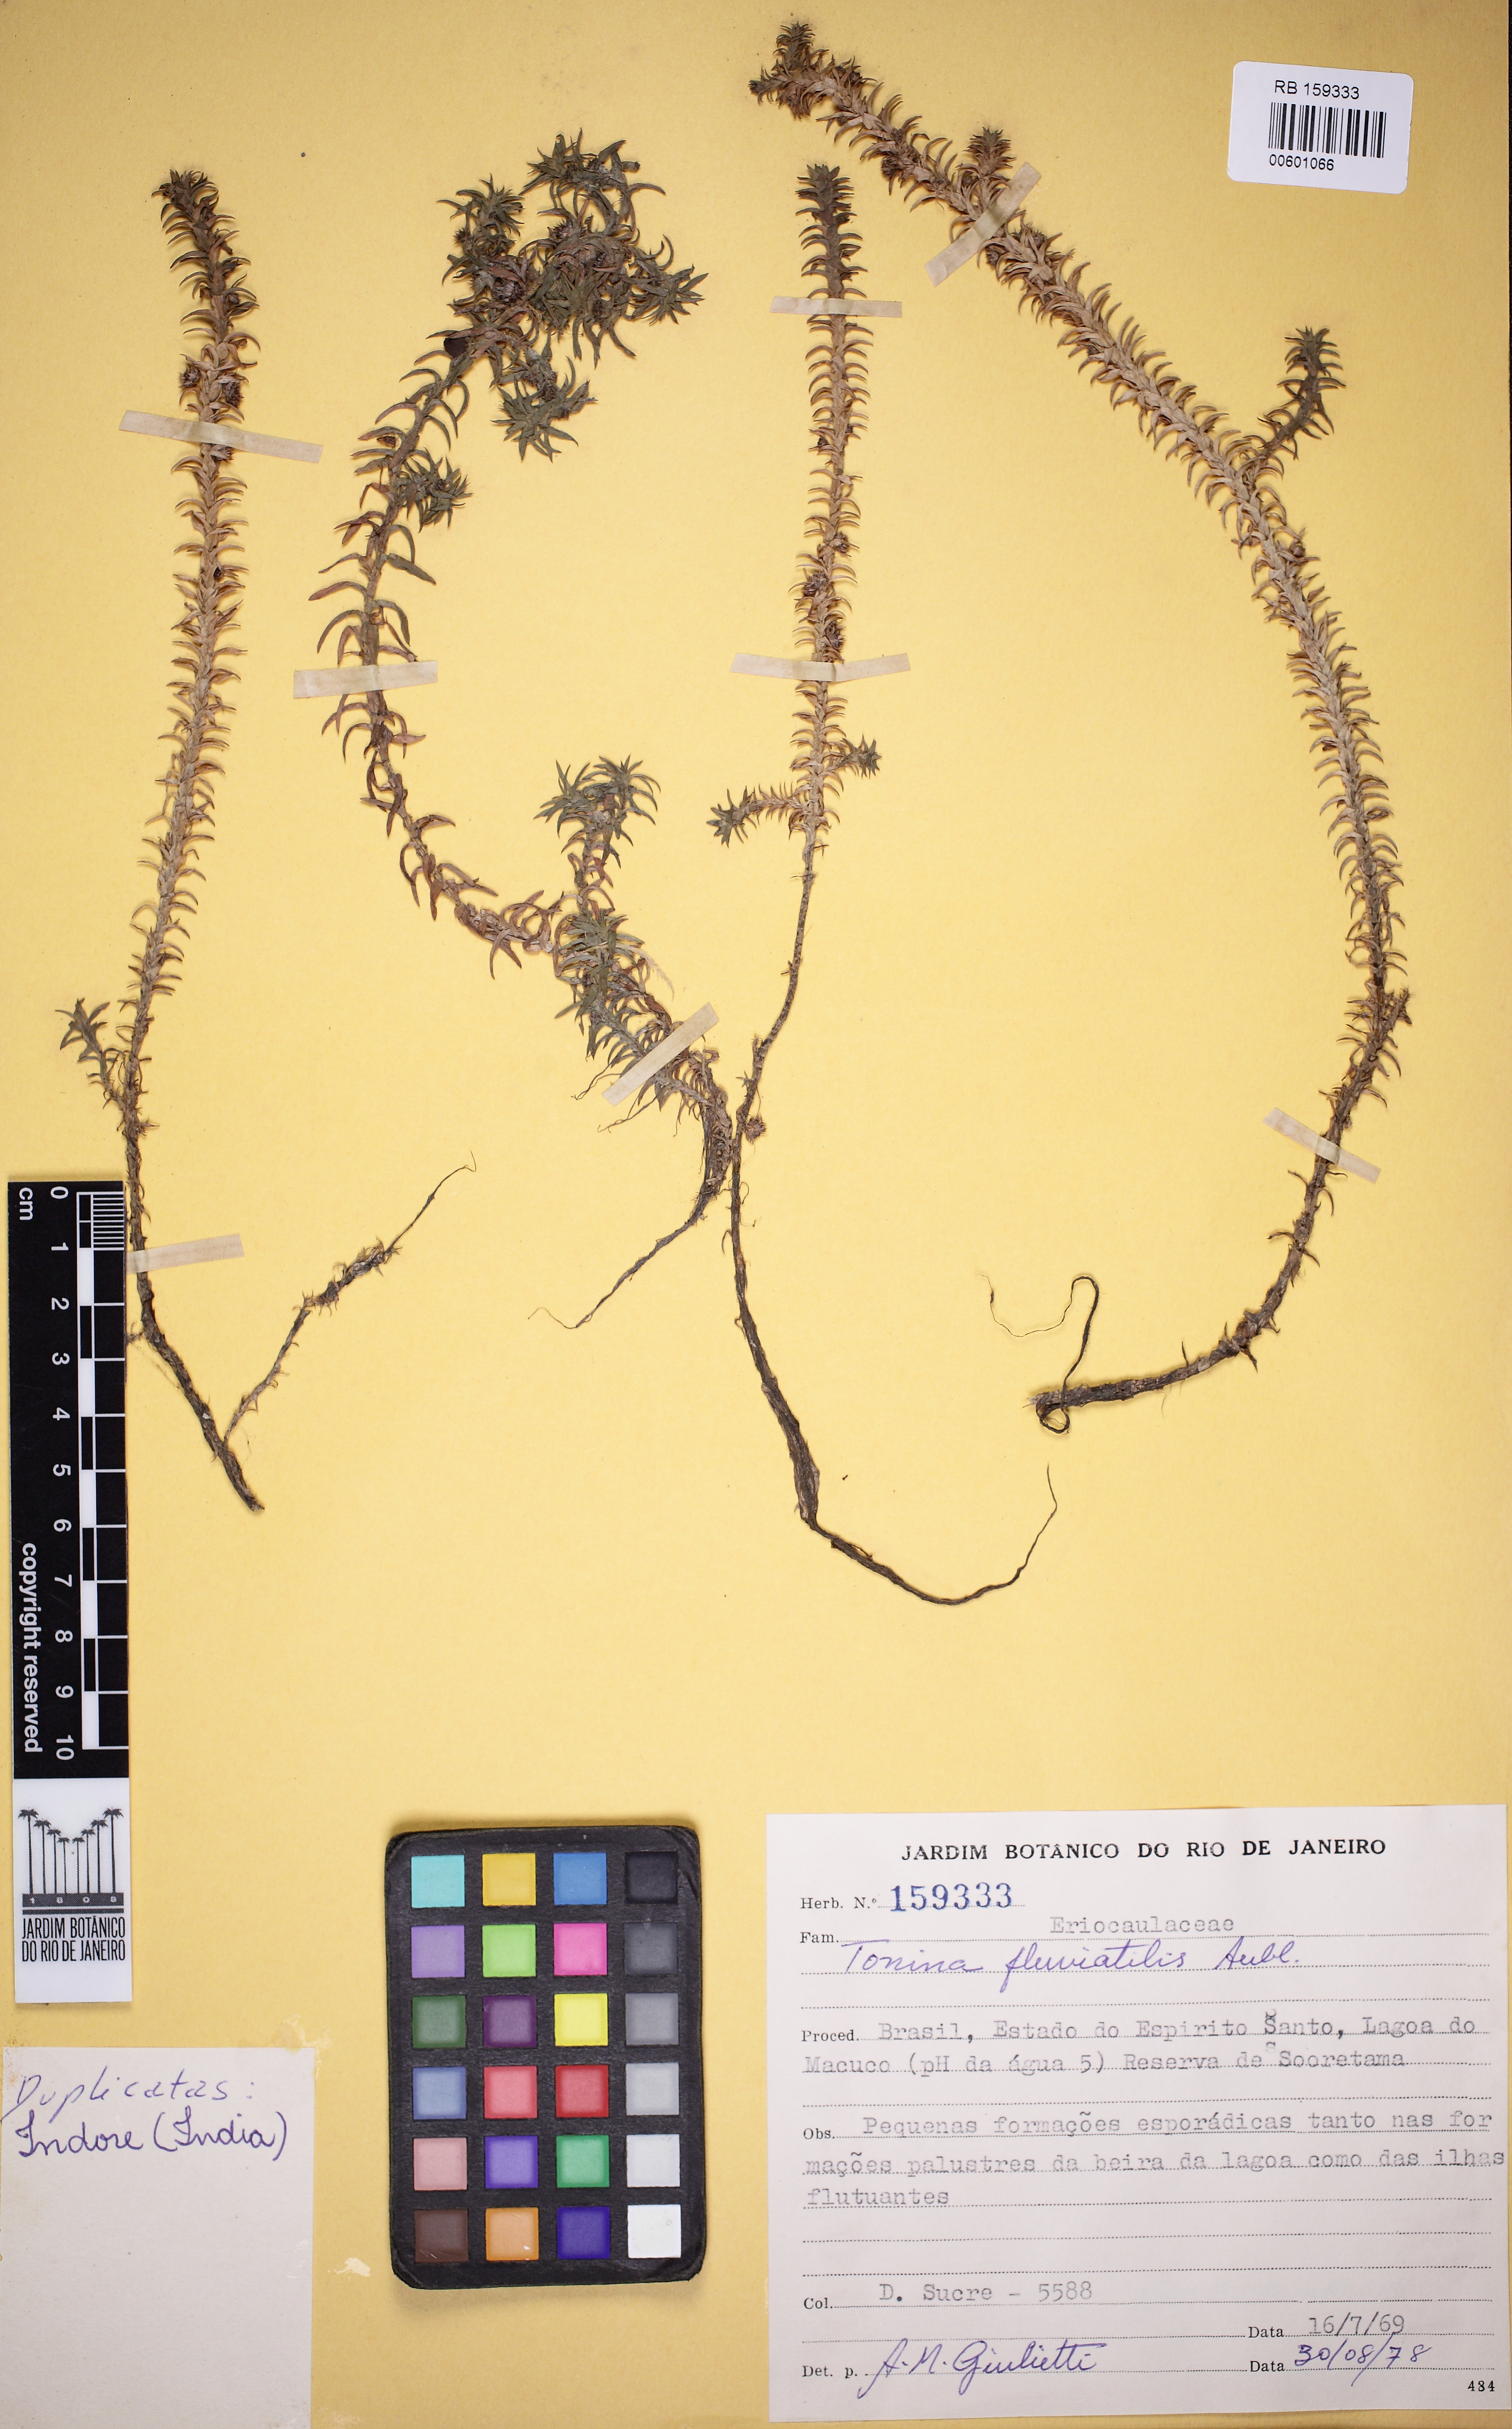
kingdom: Plantae
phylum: Tracheophyta
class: Liliopsida
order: Poales
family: Eriocaulaceae
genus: Paepalanthus
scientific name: Paepalanthus fluviatilis
